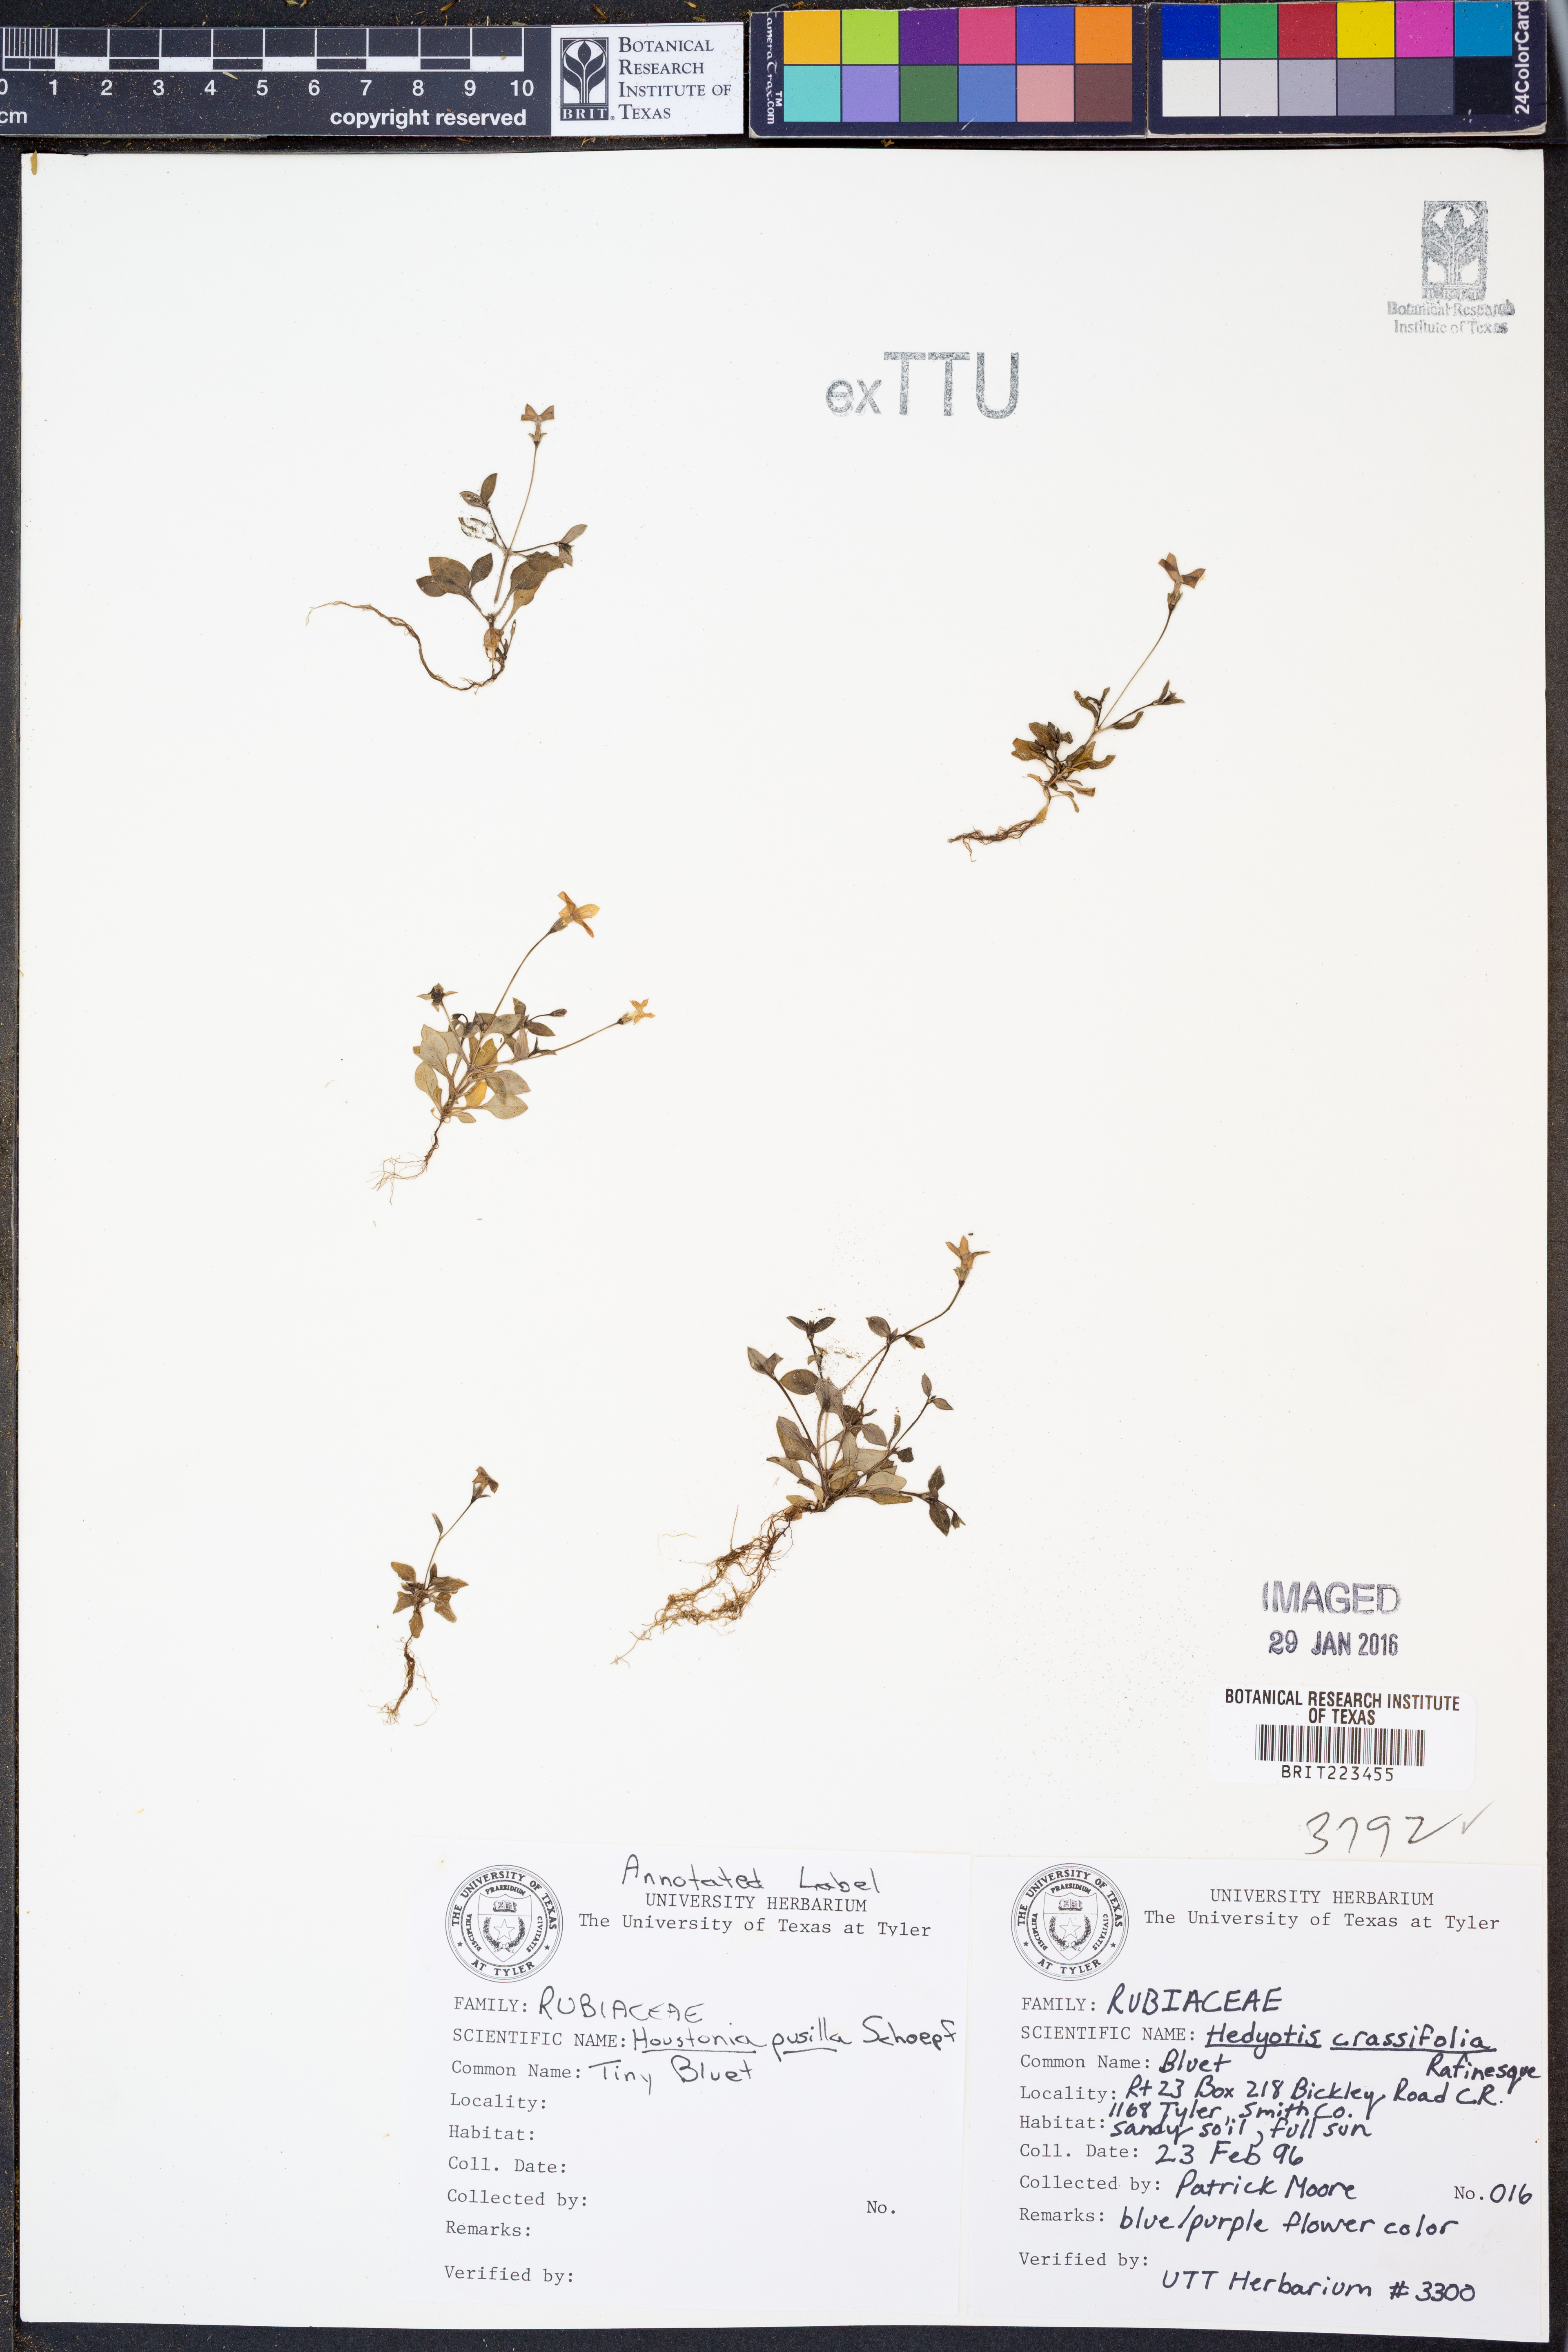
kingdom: Plantae
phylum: Tracheophyta
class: Magnoliopsida
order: Gentianales
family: Rubiaceae
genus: Houstonia
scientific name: Houstonia pusilla
